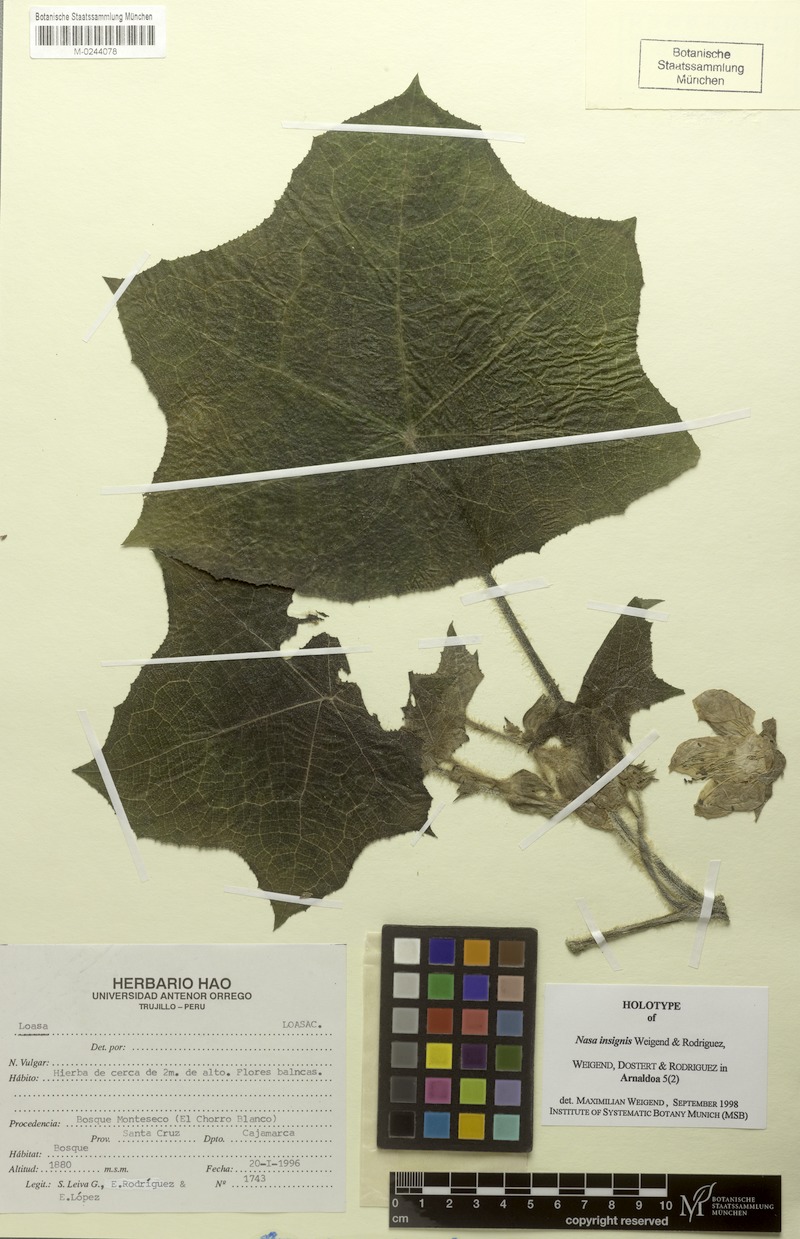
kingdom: Plantae
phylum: Tracheophyta
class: Magnoliopsida
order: Cornales
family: Loasaceae
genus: Nasa
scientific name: Nasa insignis
